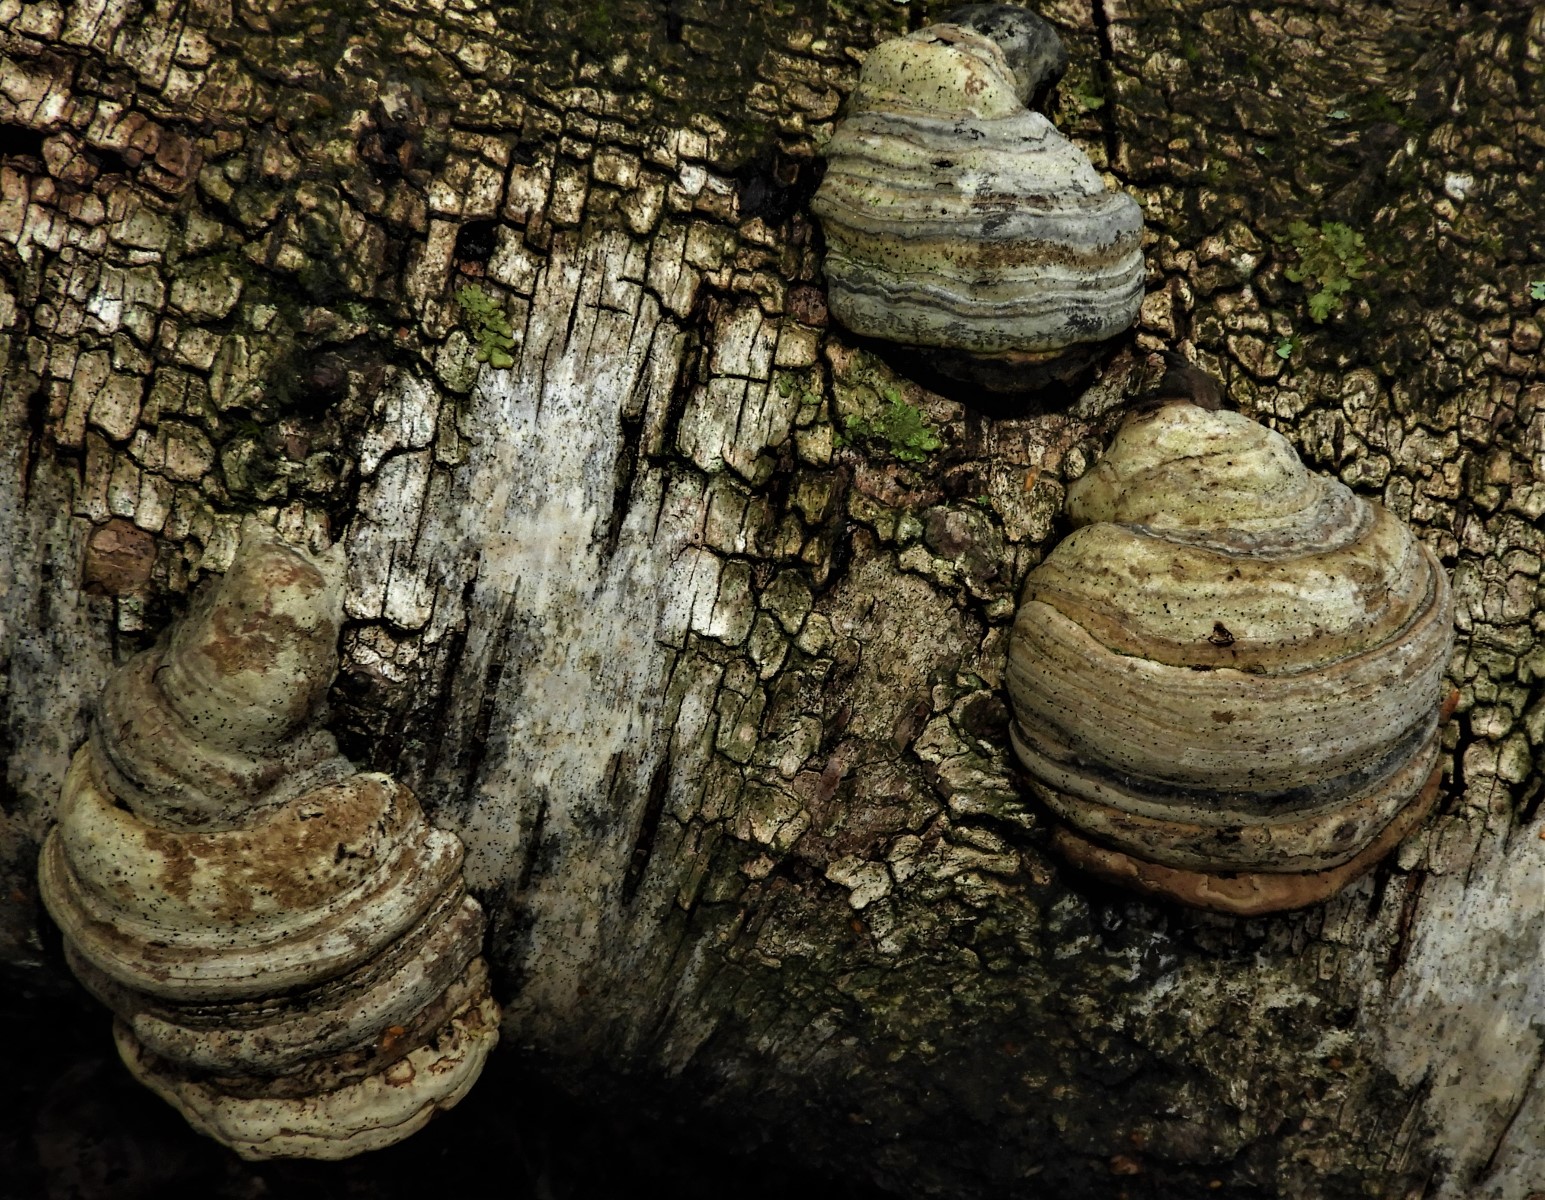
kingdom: Fungi
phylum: Basidiomycota
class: Agaricomycetes
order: Polyporales
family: Polyporaceae
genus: Fomes
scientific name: Fomes fomentarius
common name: tøndersvamp
